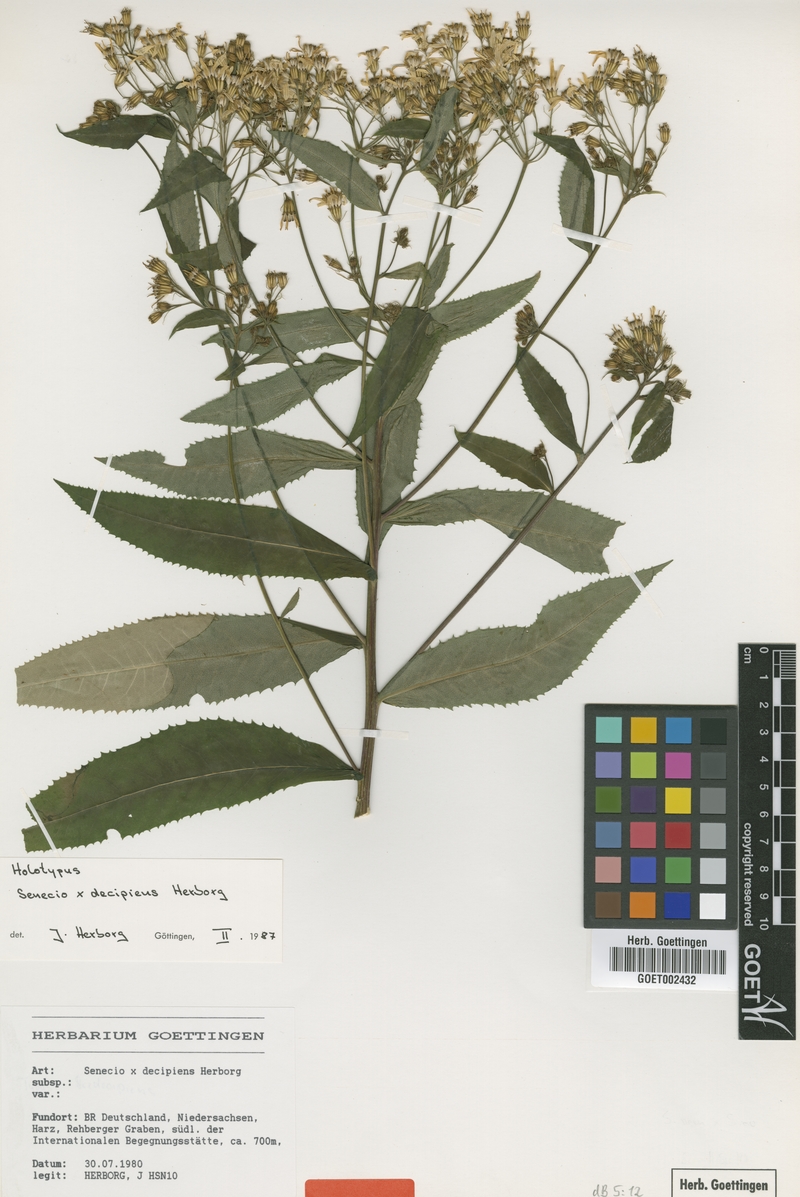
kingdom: Plantae
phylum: Tracheophyta
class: Magnoliopsida
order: Asterales
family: Asteraceae
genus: Senecio
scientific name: Senecio decipiens
